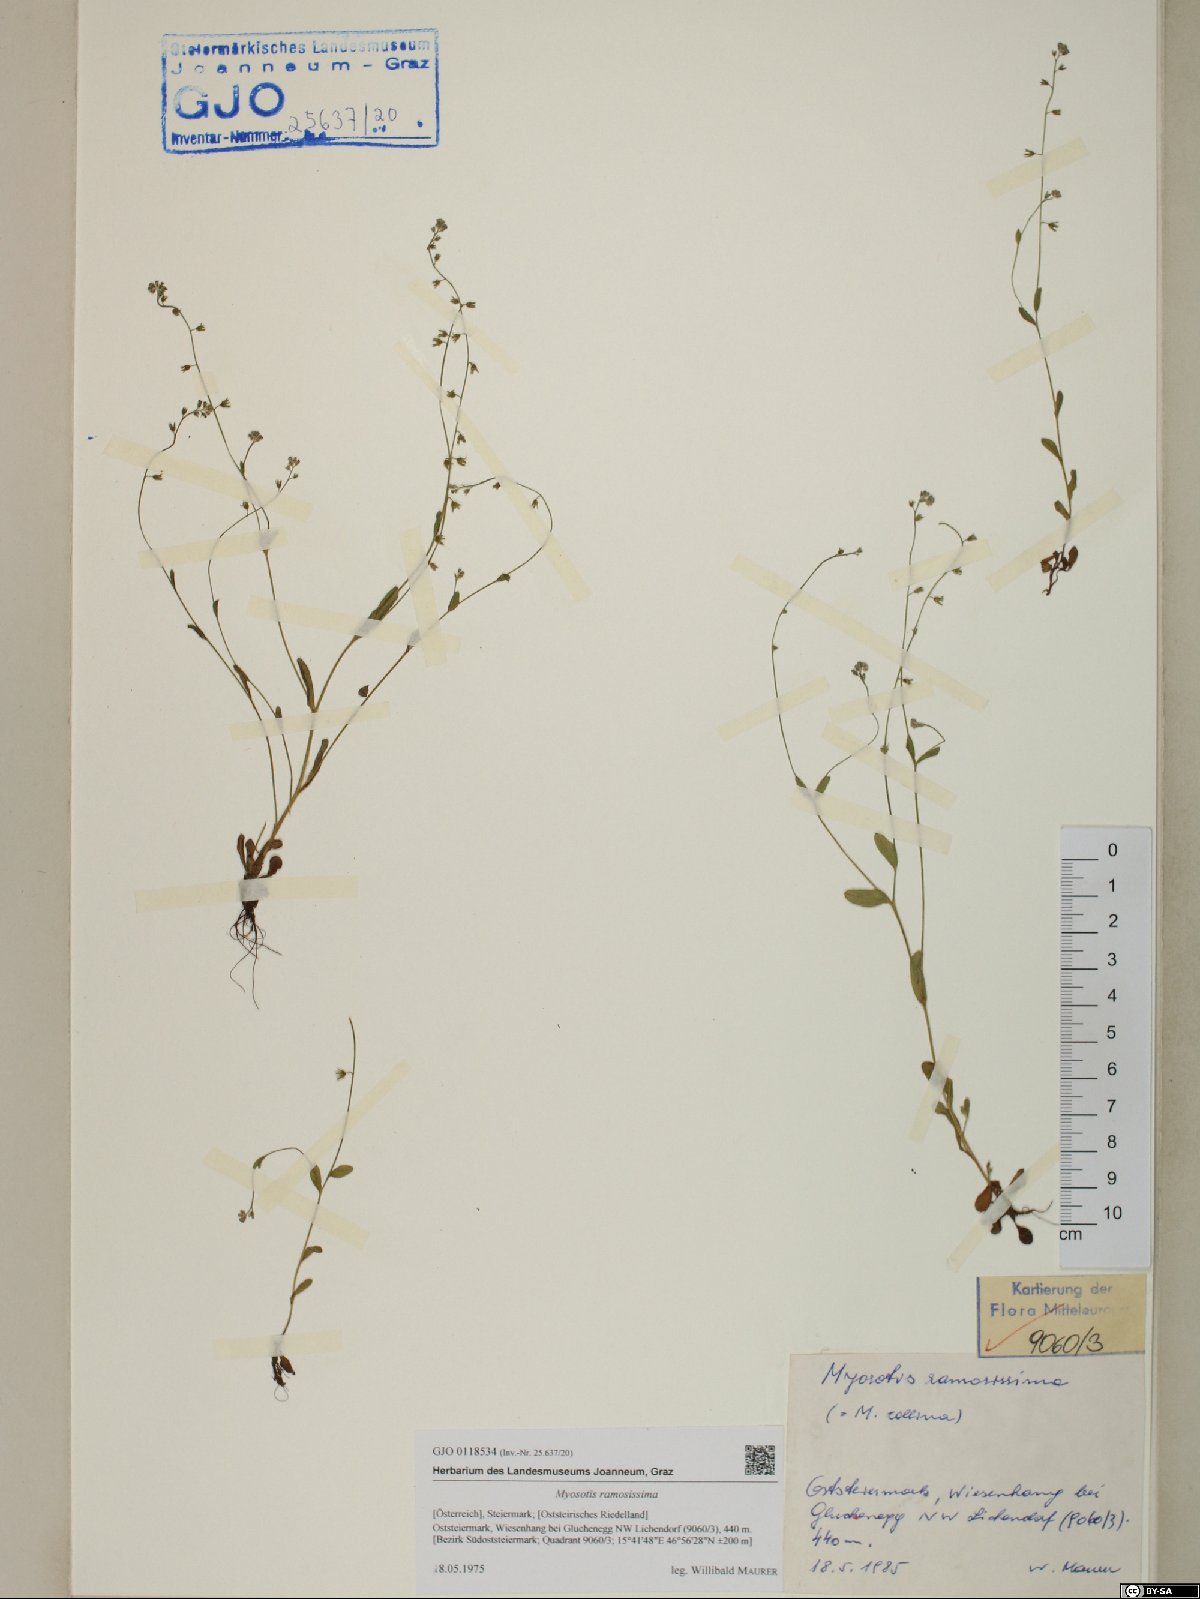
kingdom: Plantae
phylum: Tracheophyta
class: Magnoliopsida
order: Boraginales
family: Boraginaceae
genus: Myosotis
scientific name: Myosotis ramosissima
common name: Early forget-me-not
